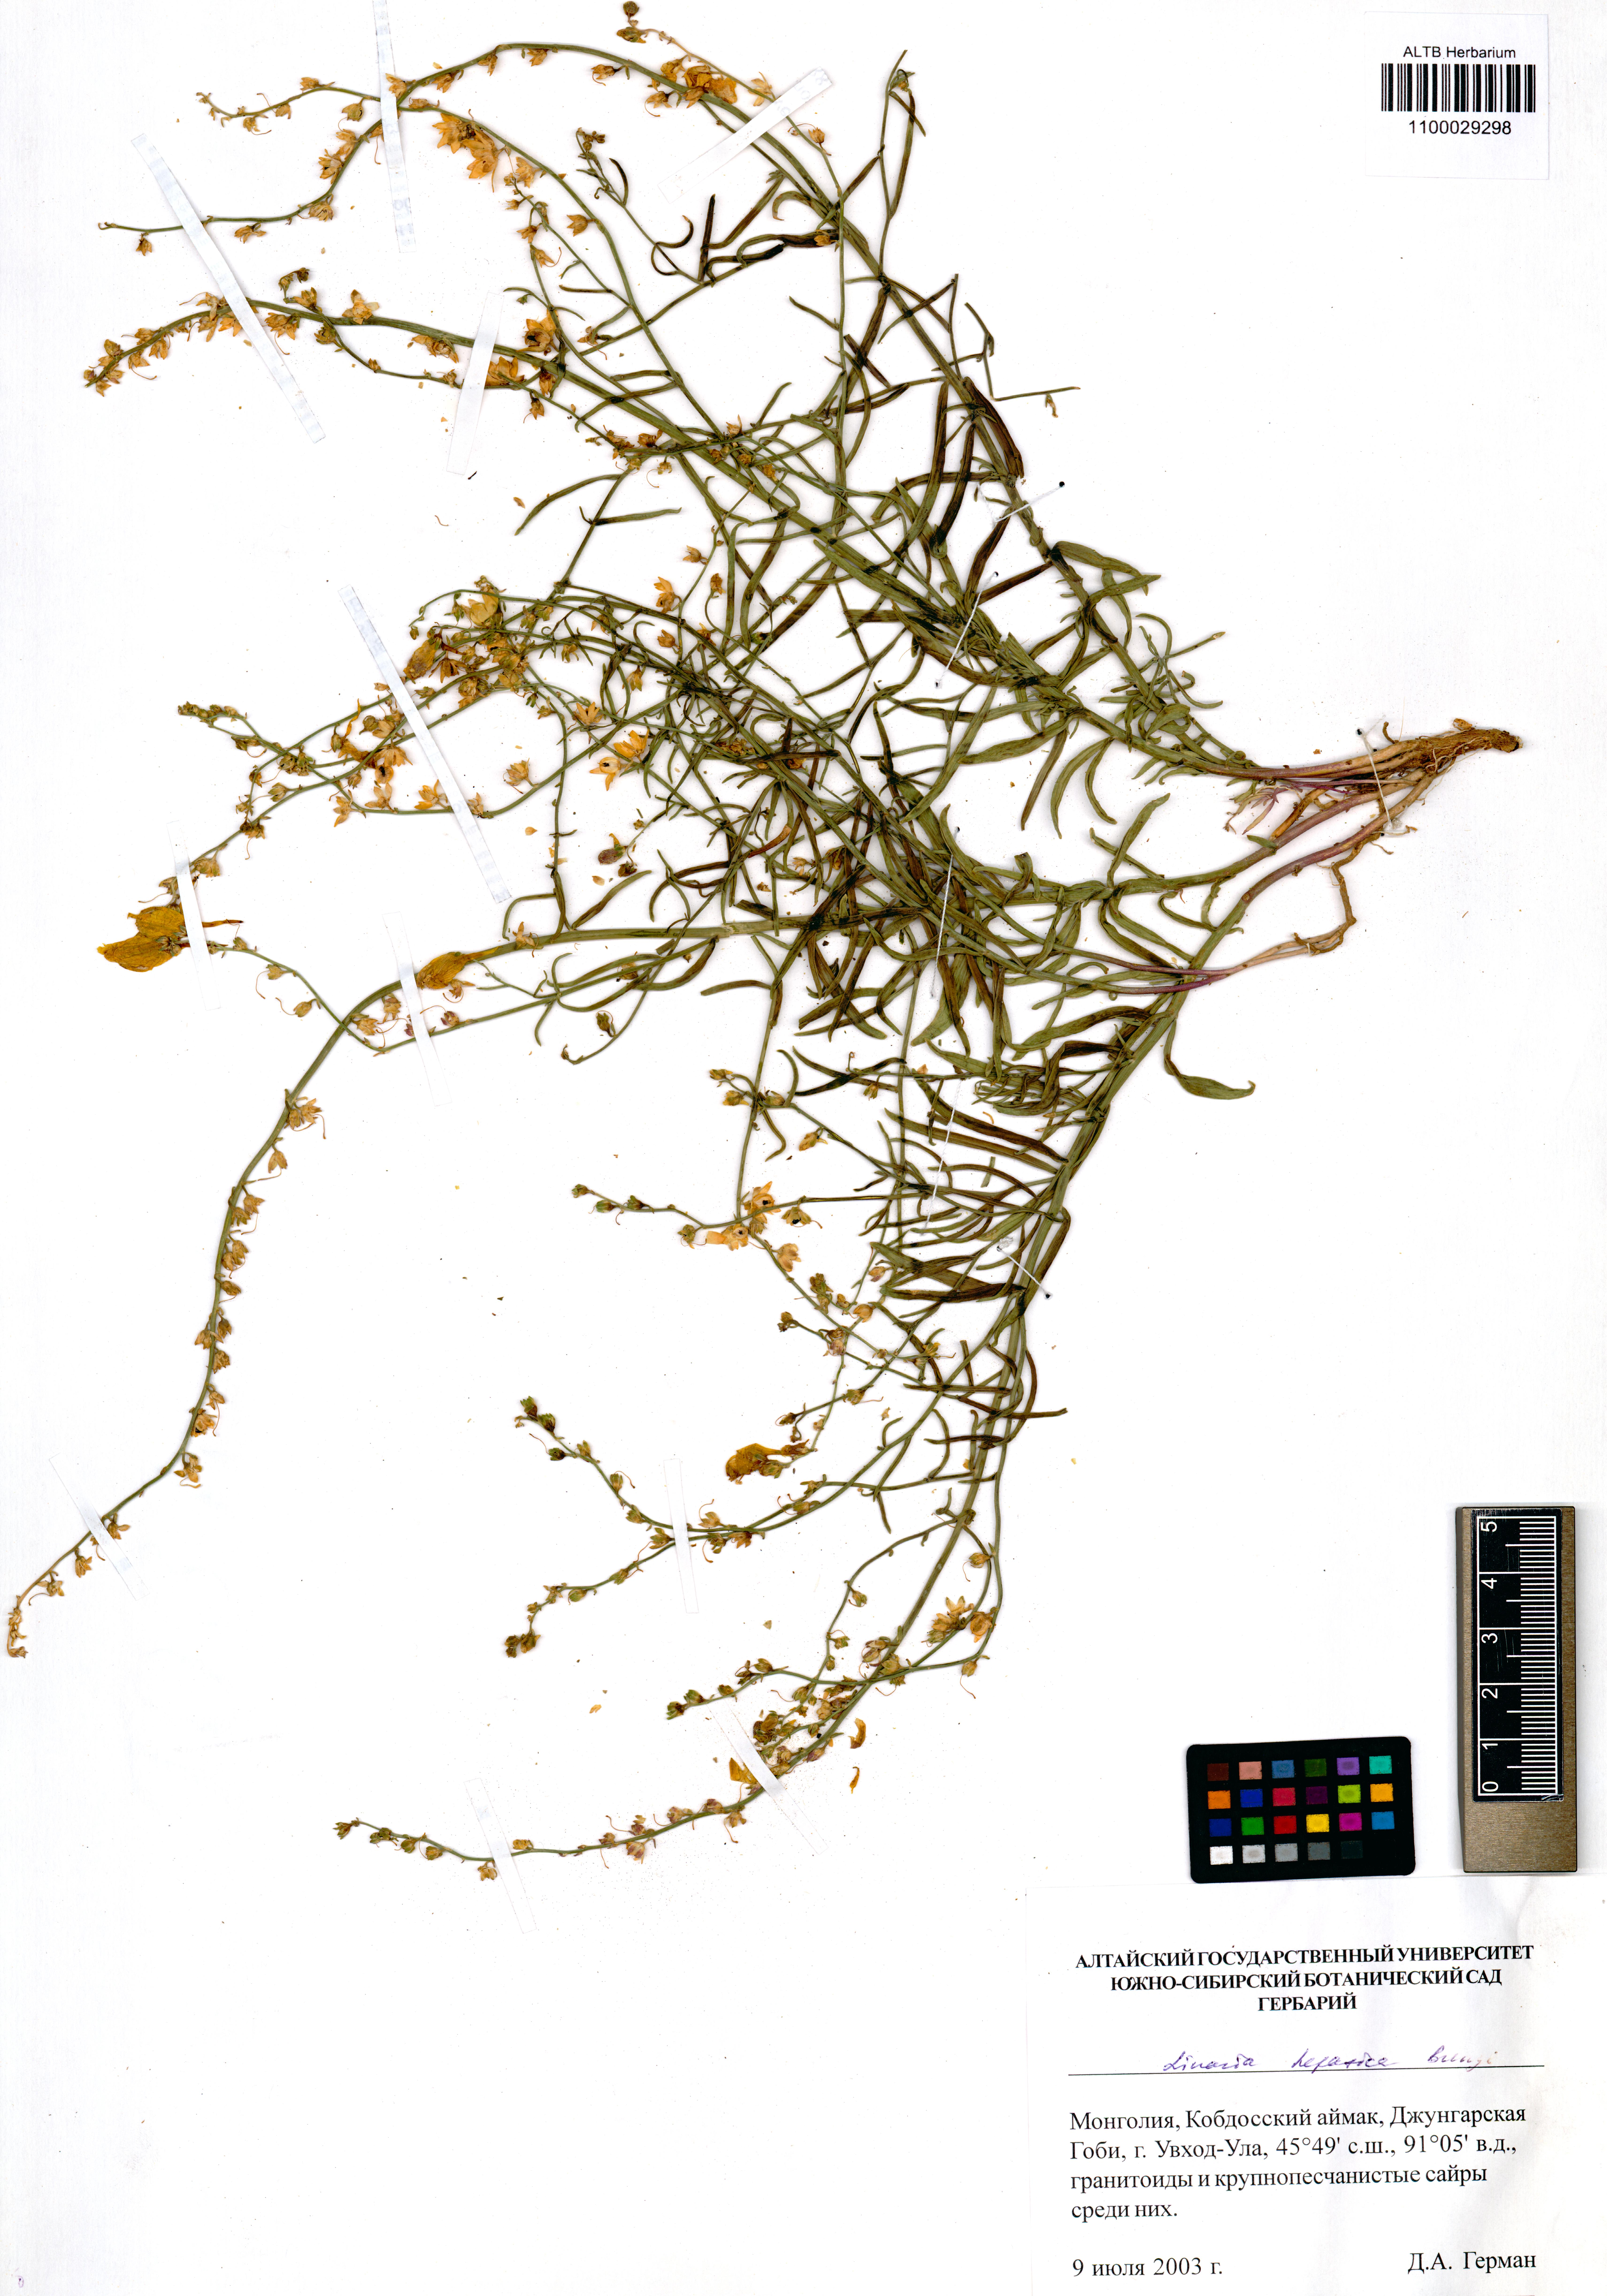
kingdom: Plantae
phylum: Tracheophyta
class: Magnoliopsida
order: Lamiales
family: Plantaginaceae
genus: Linaria
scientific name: Linaria hepatica
